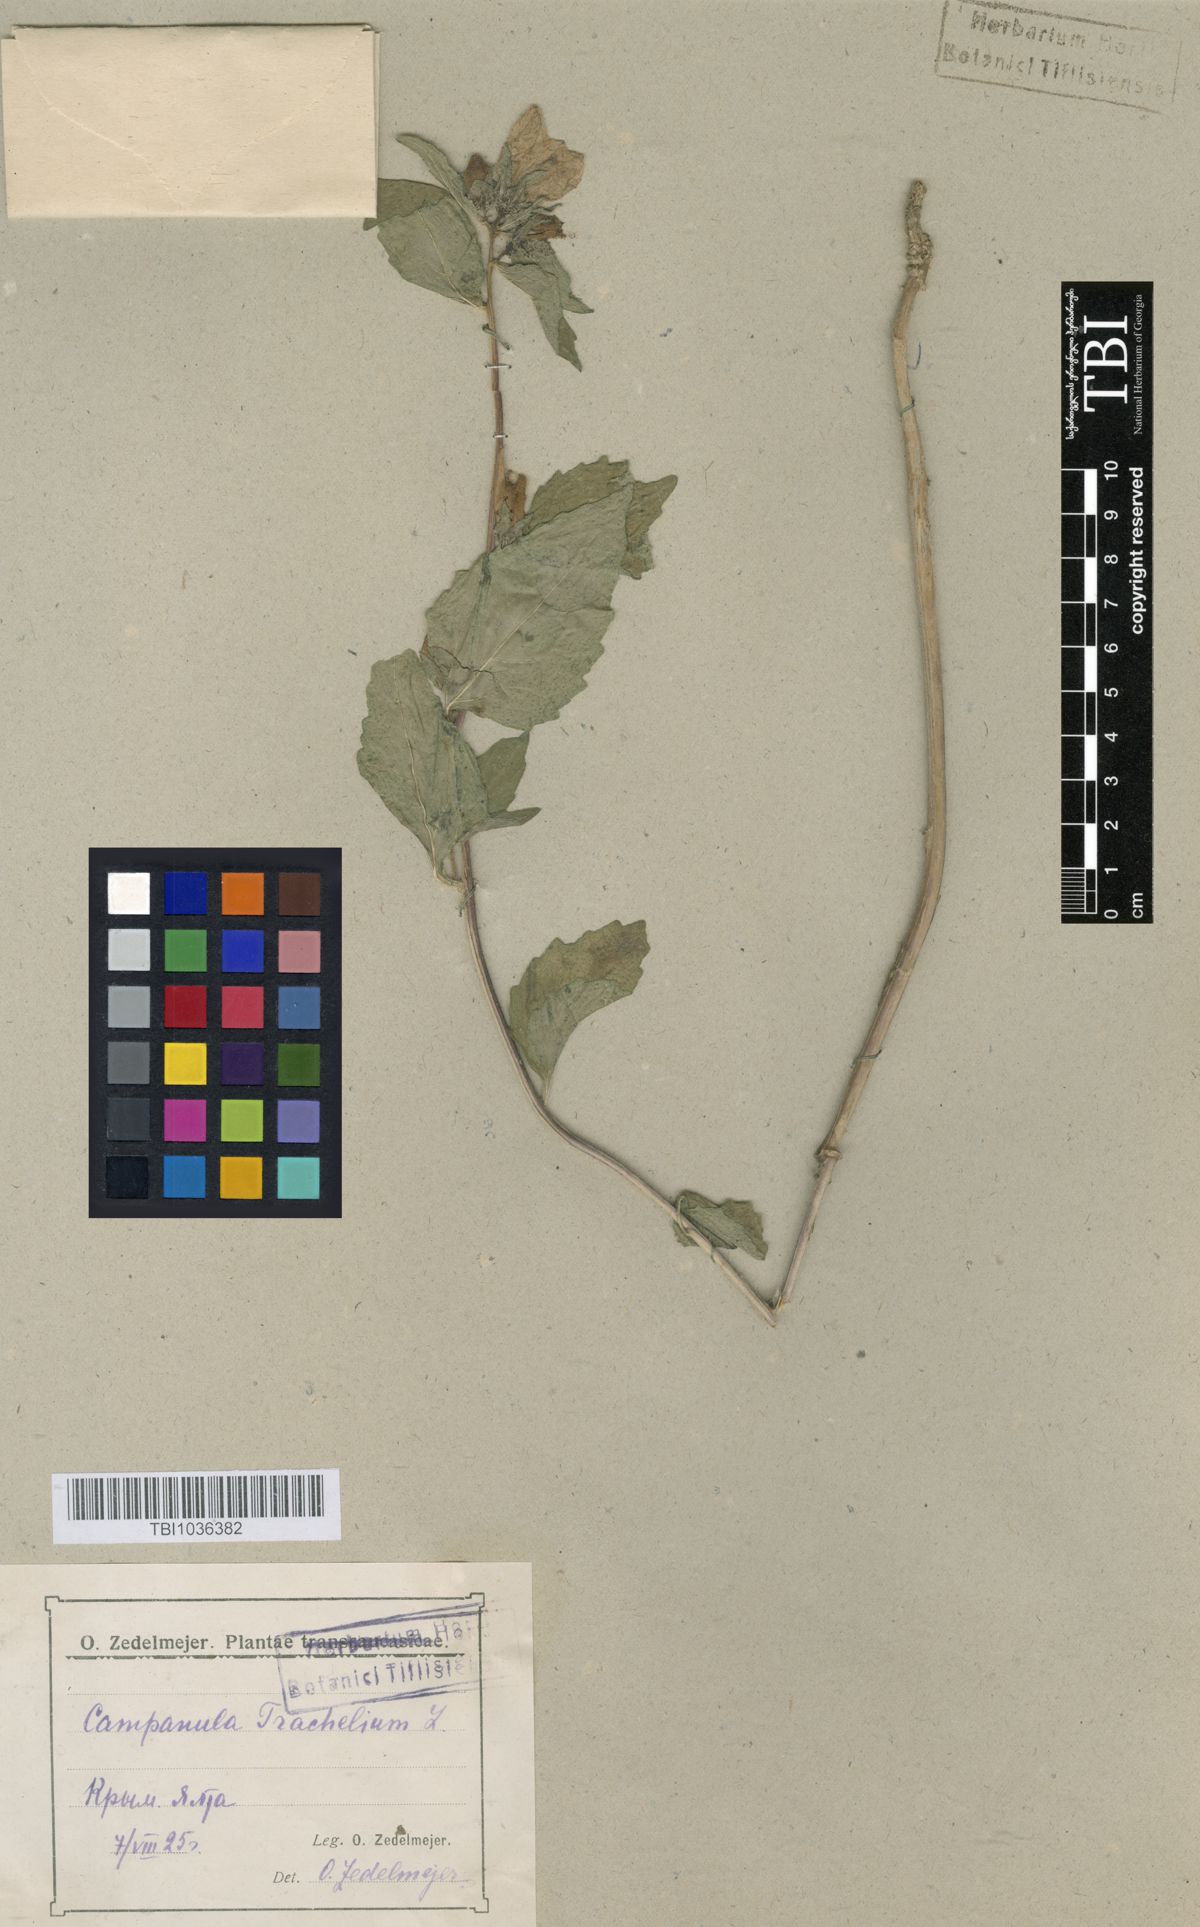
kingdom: Plantae
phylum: Tracheophyta
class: Magnoliopsida
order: Asterales
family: Campanulaceae
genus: Campanula
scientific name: Campanula trachelium
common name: Nettle-leaved bellflower
